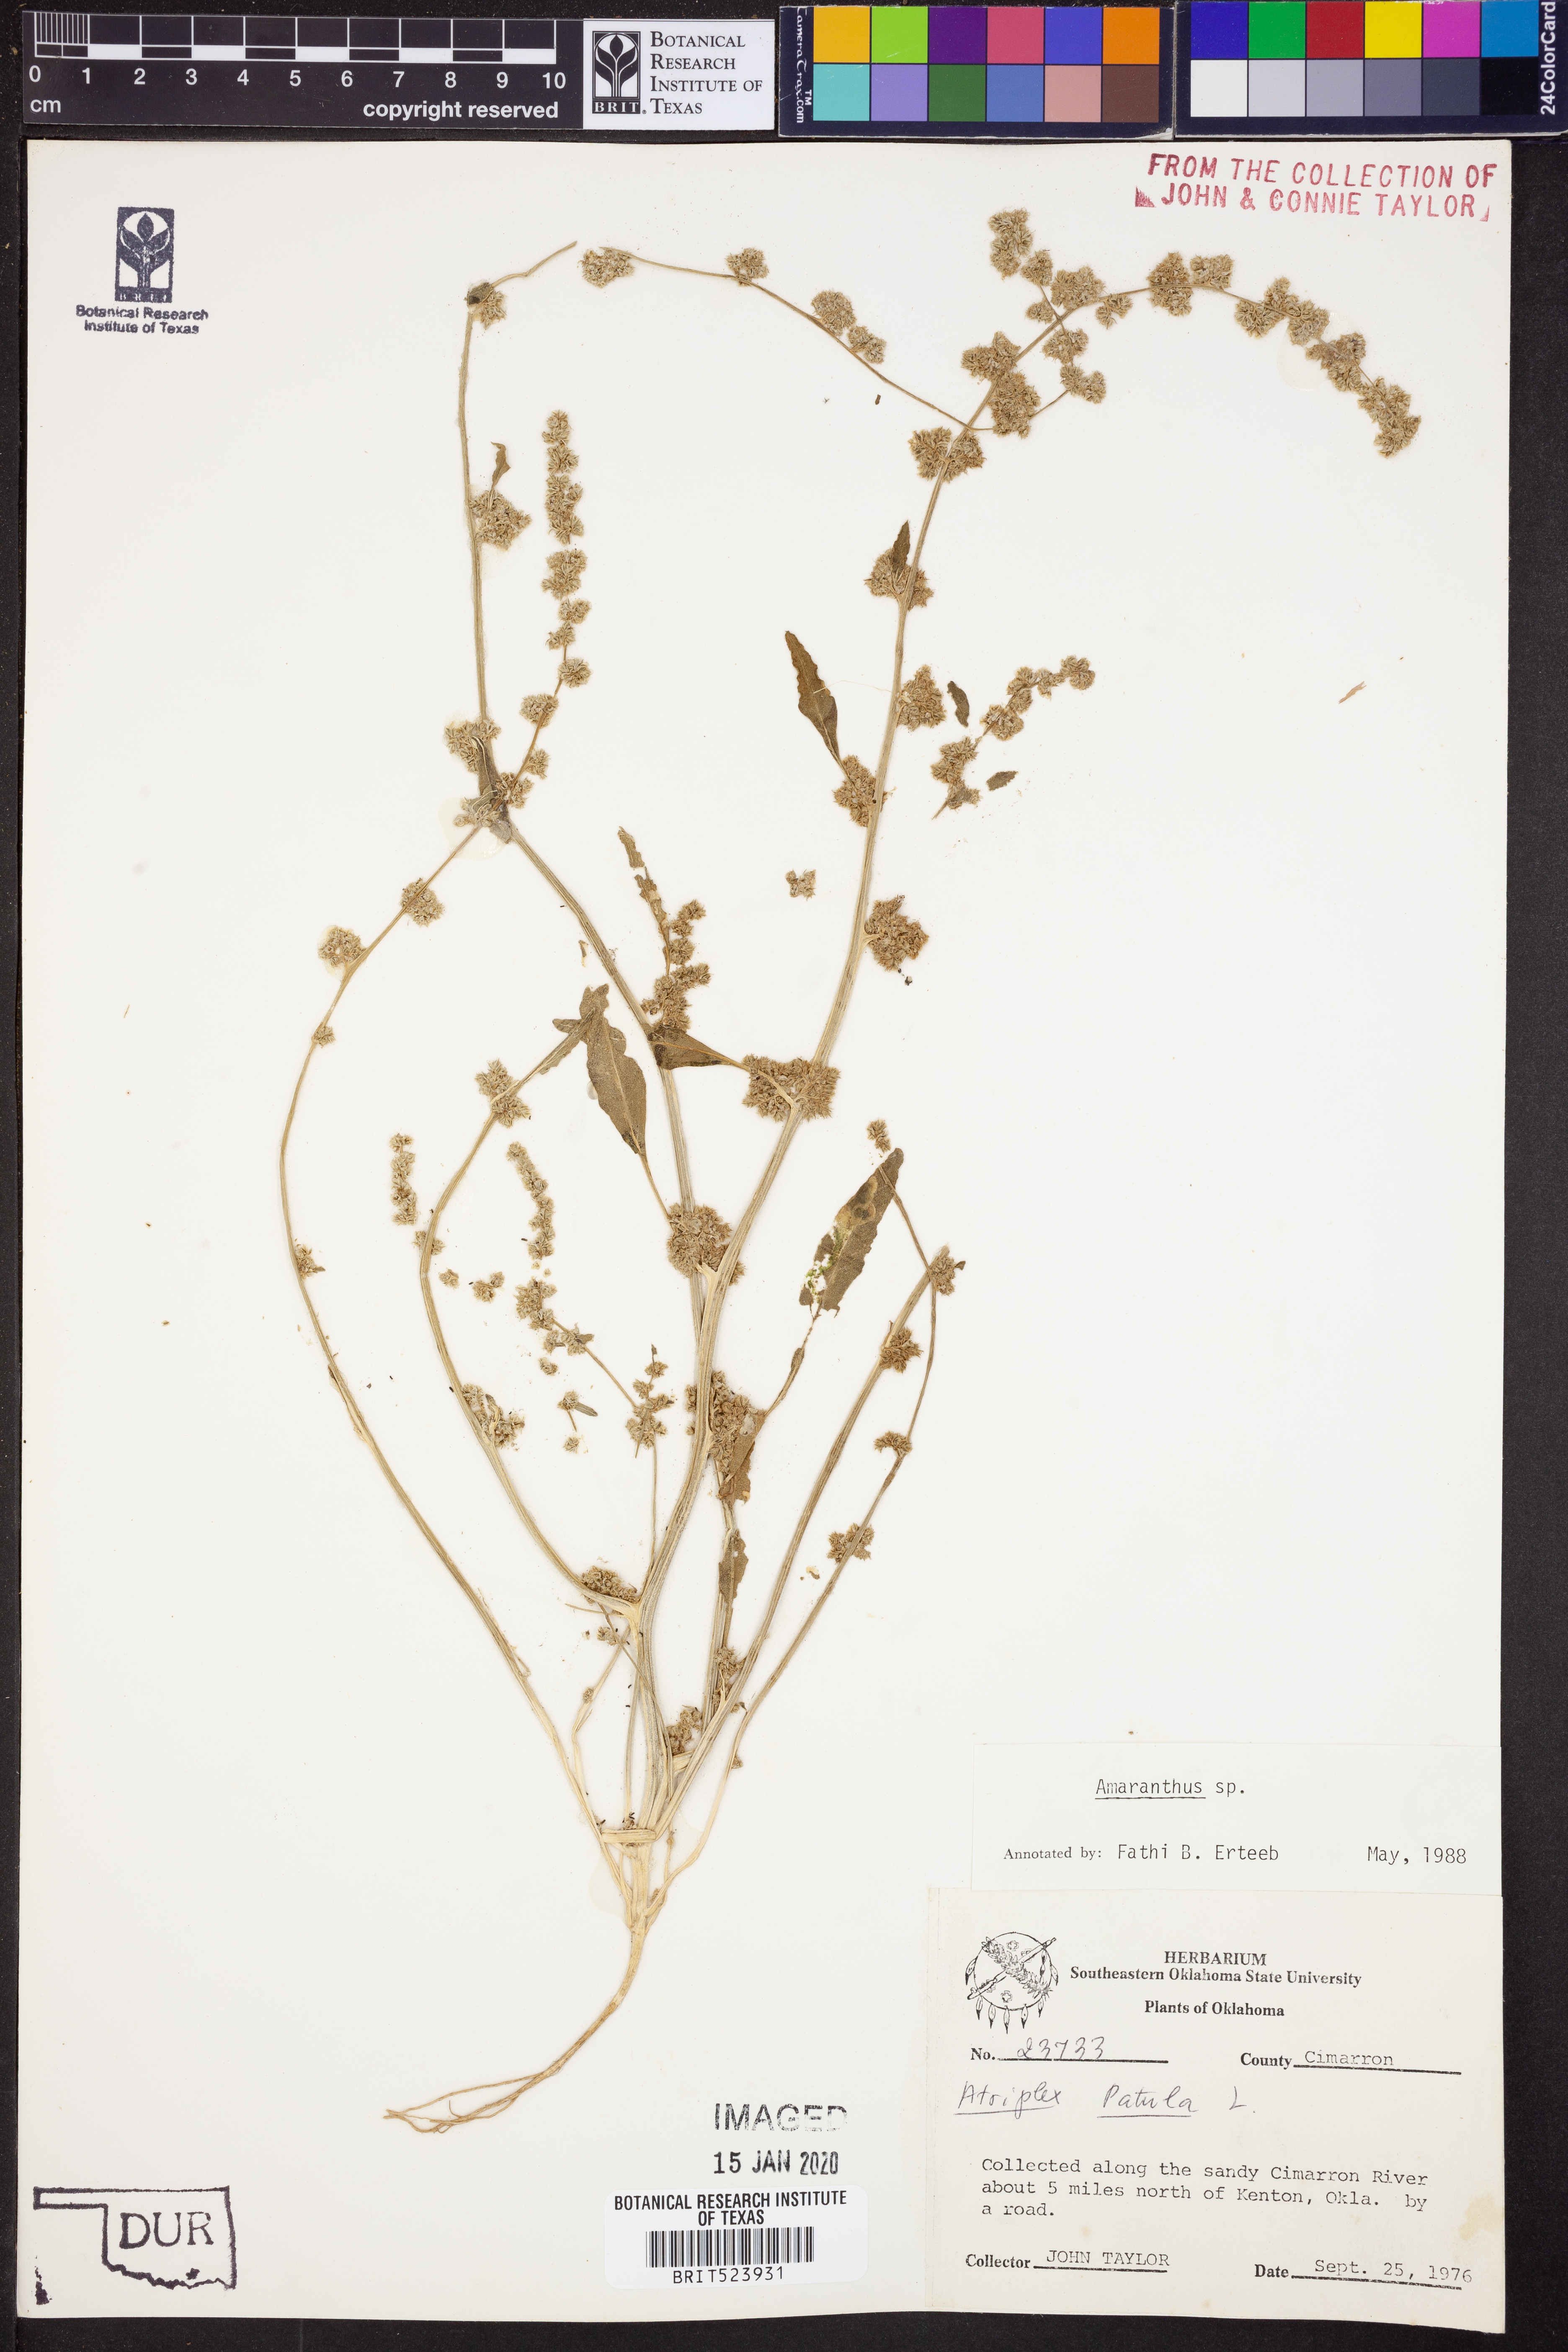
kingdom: Plantae
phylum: Tracheophyta
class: Magnoliopsida
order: Caryophyllales
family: Amaranthaceae
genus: Amaranthus
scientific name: Amaranthus
